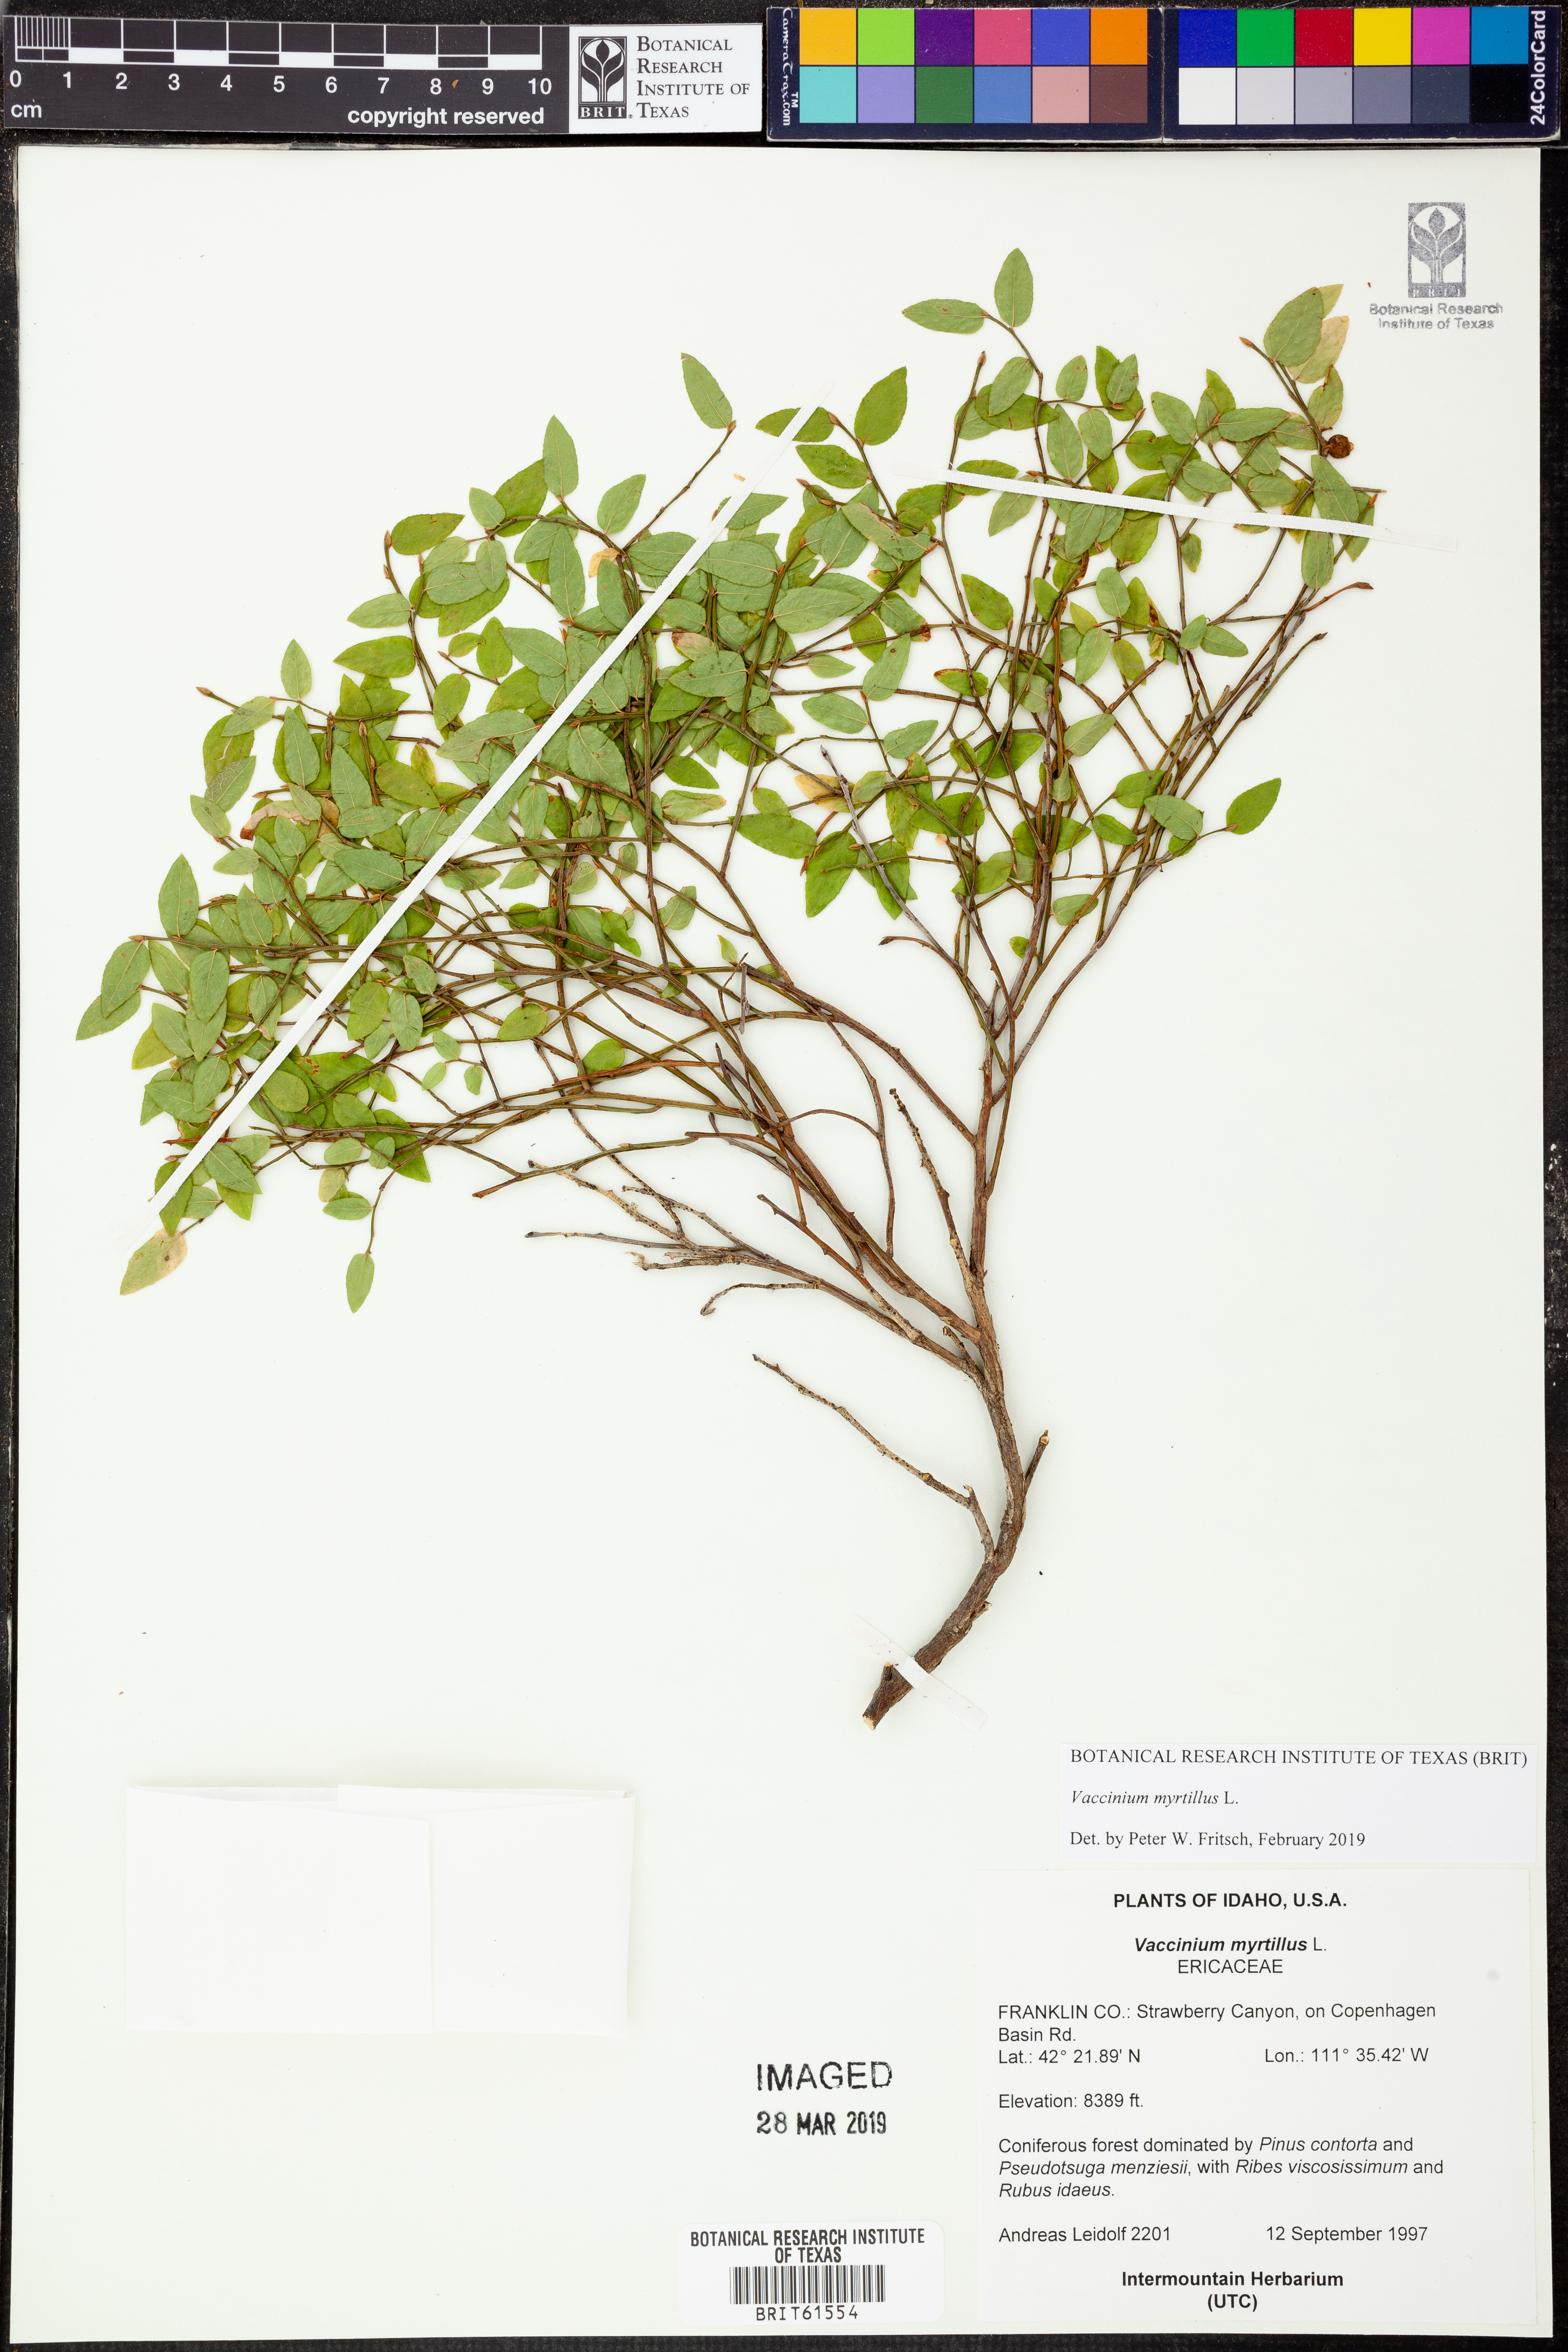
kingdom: Plantae
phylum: Tracheophyta
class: Magnoliopsida
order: Ericales
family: Ericaceae
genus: Vaccinium
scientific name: Vaccinium myrtillus
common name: Bilberry
